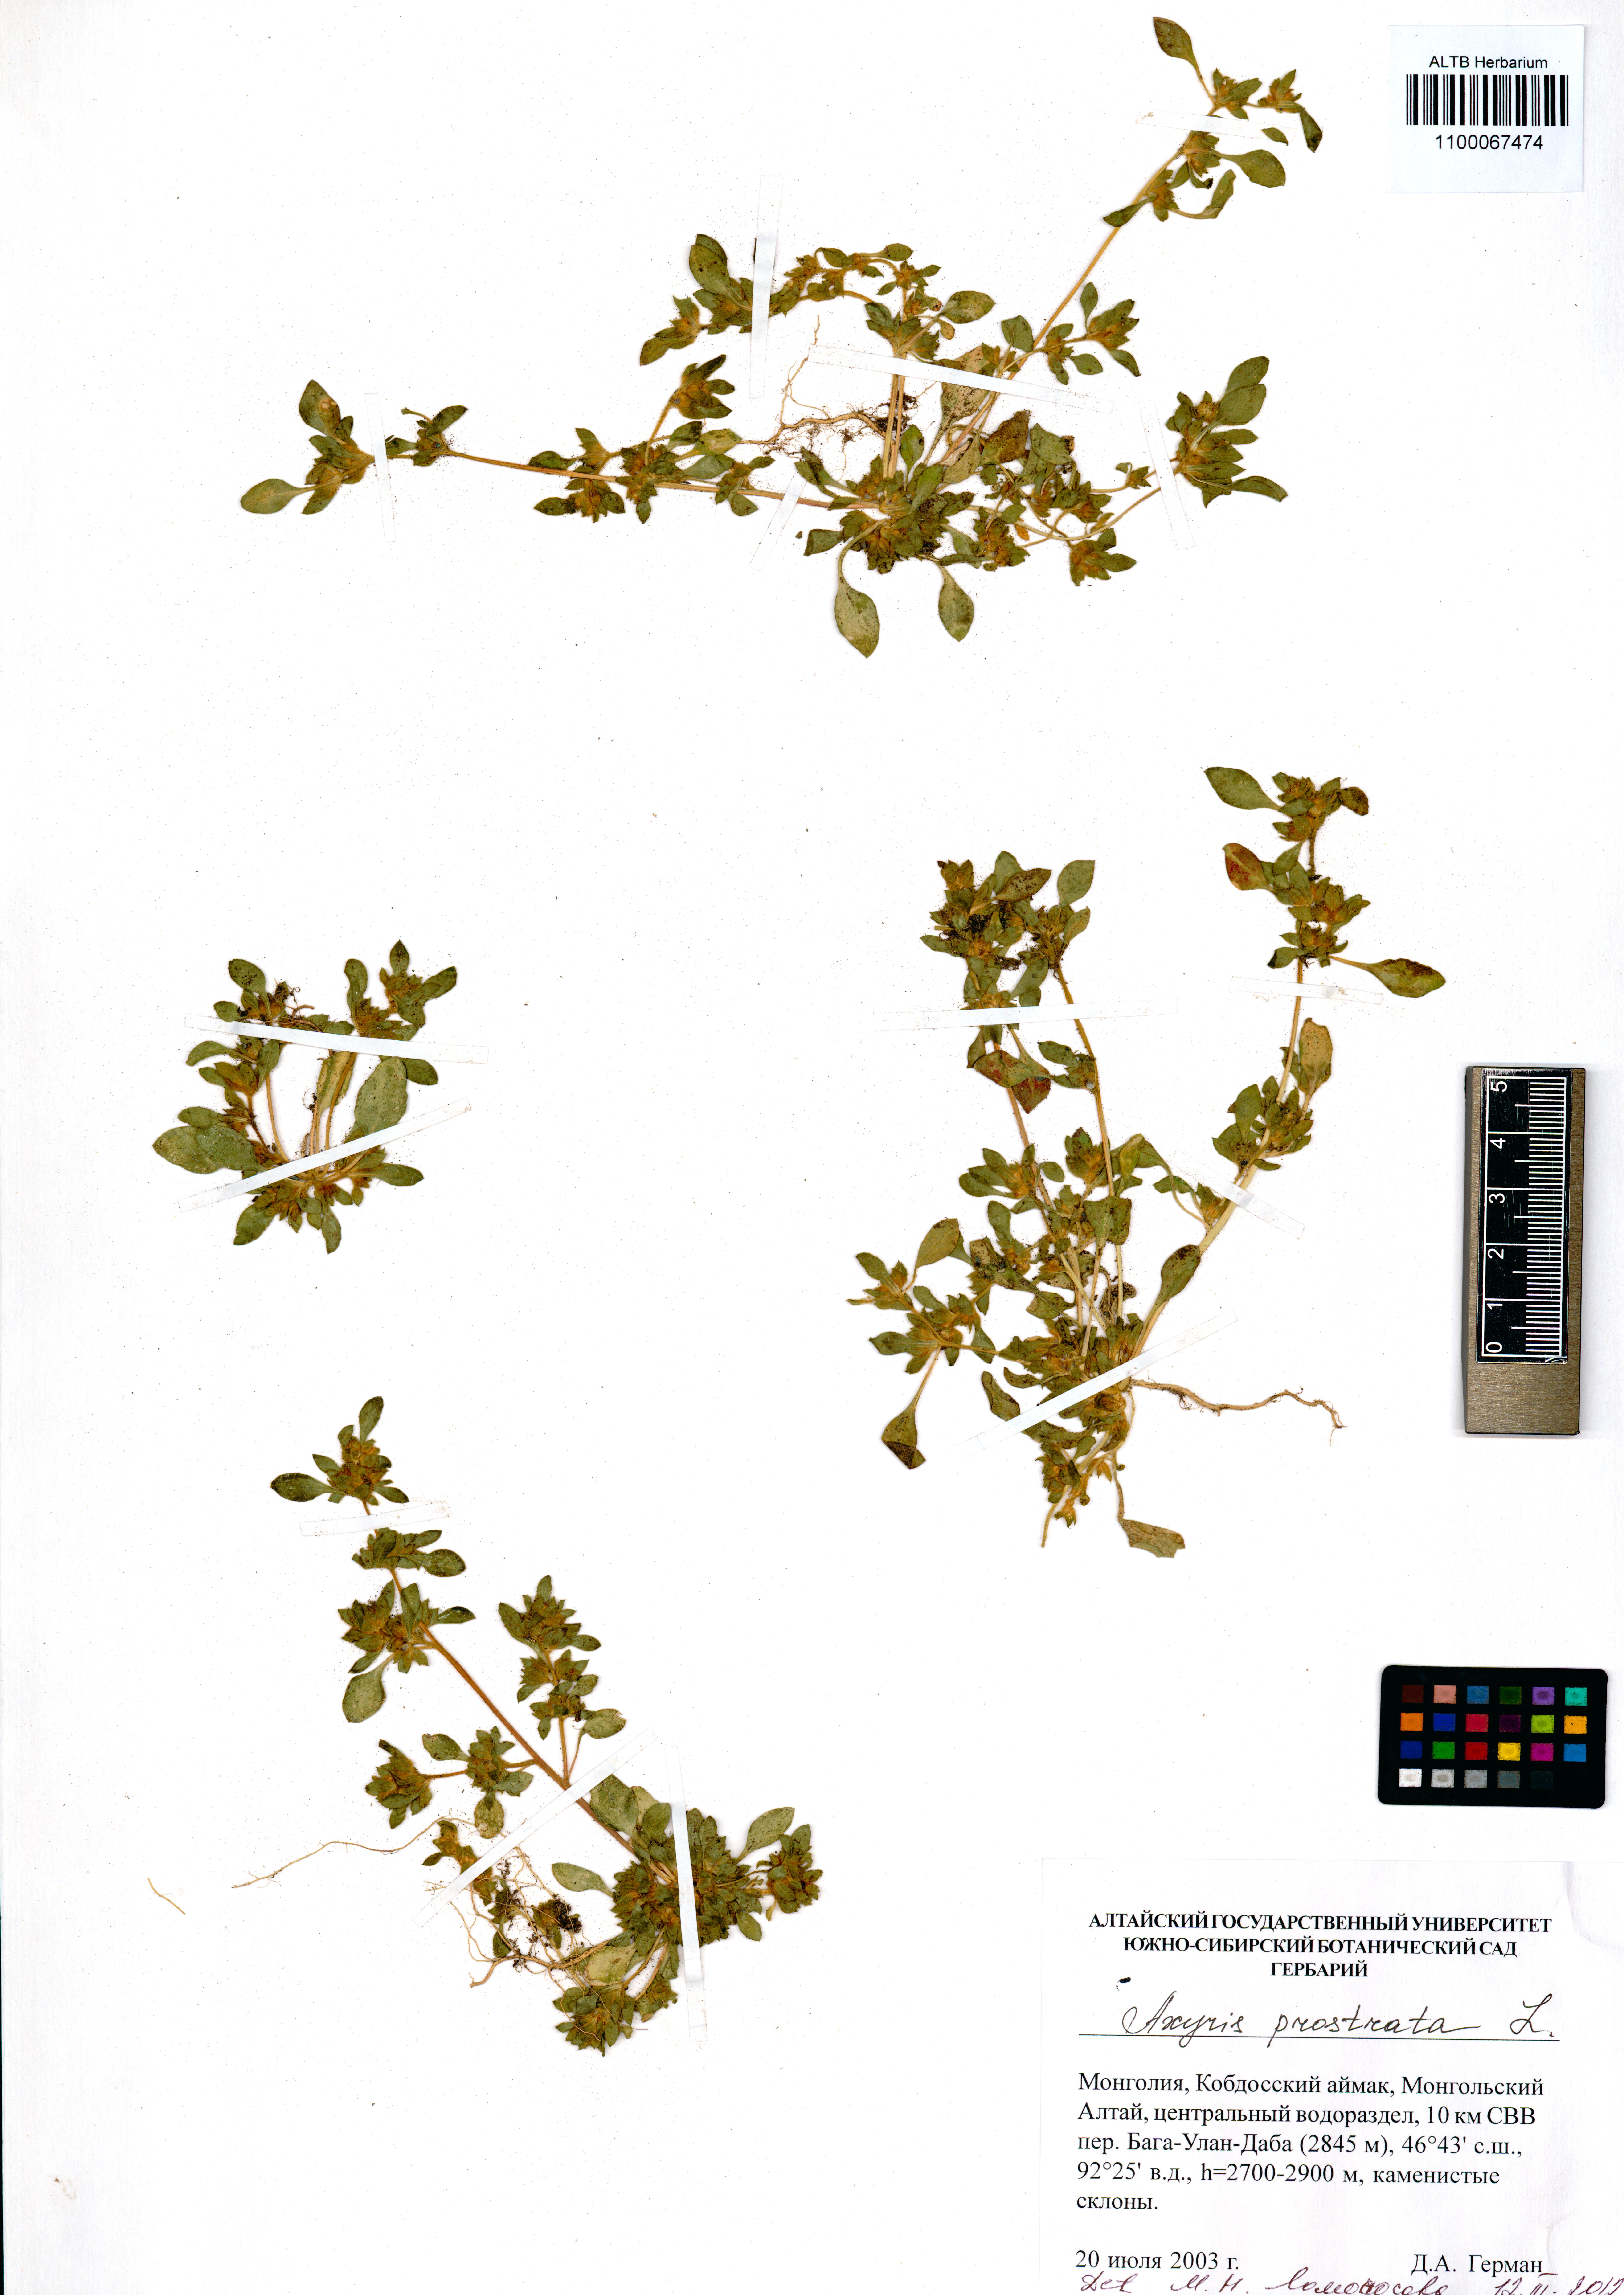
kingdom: Plantae
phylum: Tracheophyta
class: Magnoliopsida
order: Caryophyllales
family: Amaranthaceae
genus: Axyris
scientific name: Axyris prostrata
